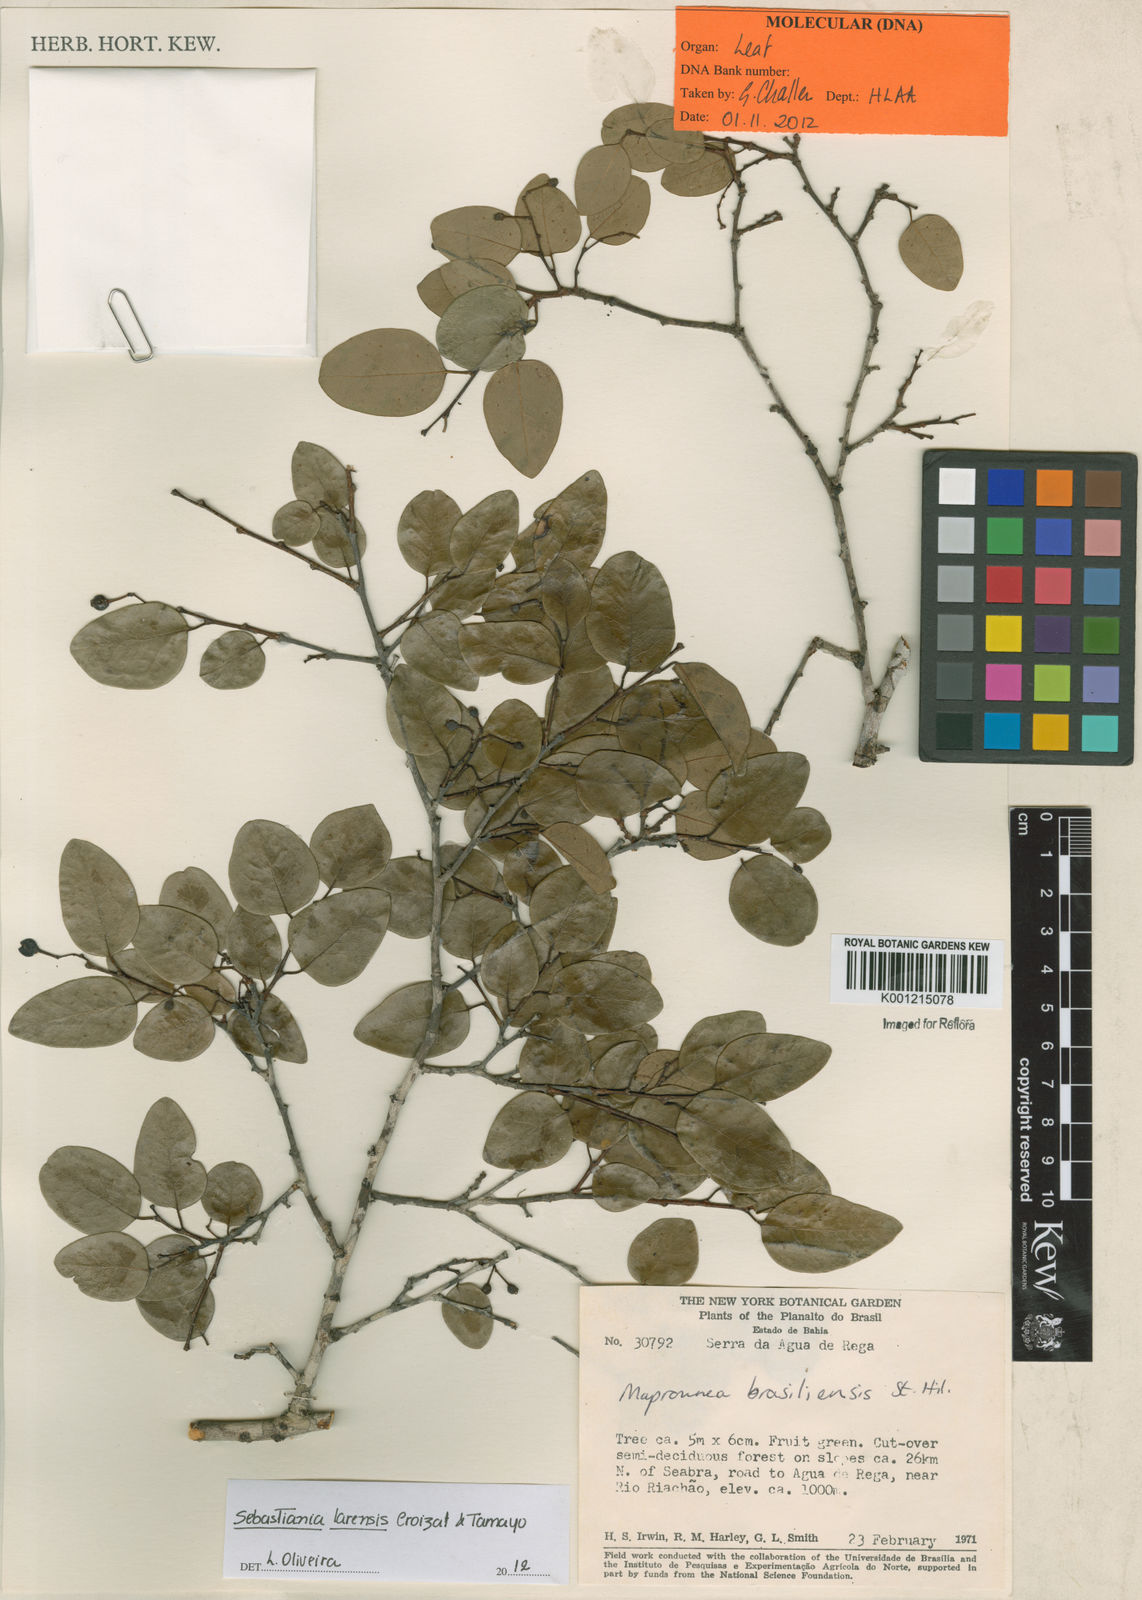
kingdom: Plantae
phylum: Tracheophyta
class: Magnoliopsida
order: Malpighiales
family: Euphorbiaceae
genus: Sebastiania
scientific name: Sebastiania larensis
